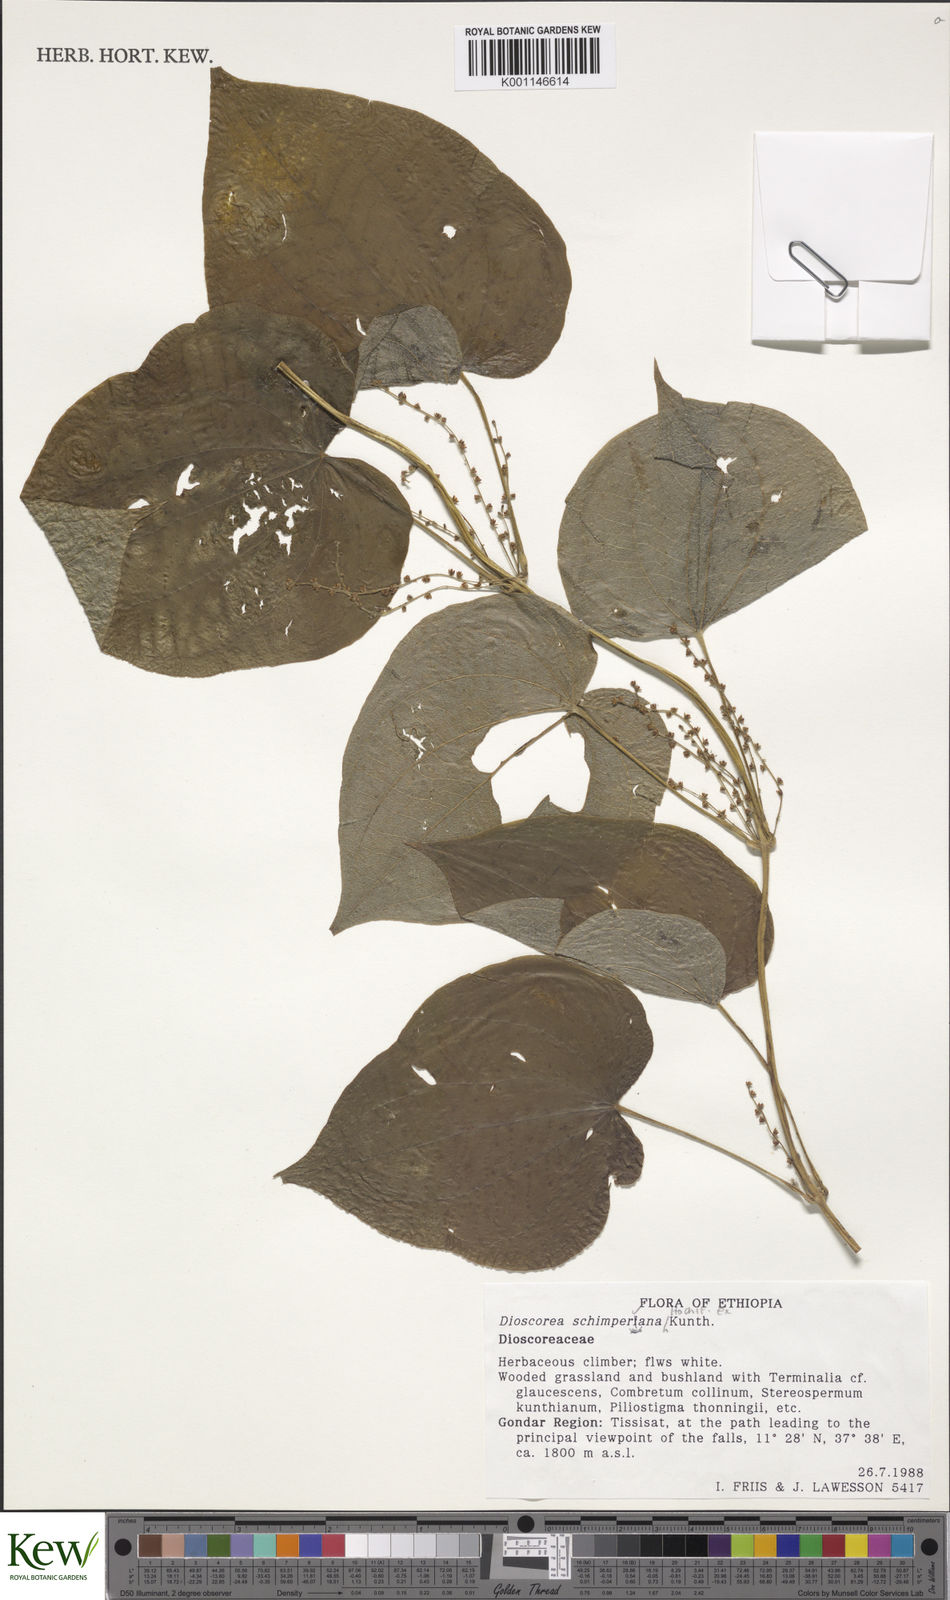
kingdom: Plantae
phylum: Tracheophyta
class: Liliopsida
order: Dioscoreales
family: Dioscoreaceae
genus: Dioscorea
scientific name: Dioscorea schimperiana
